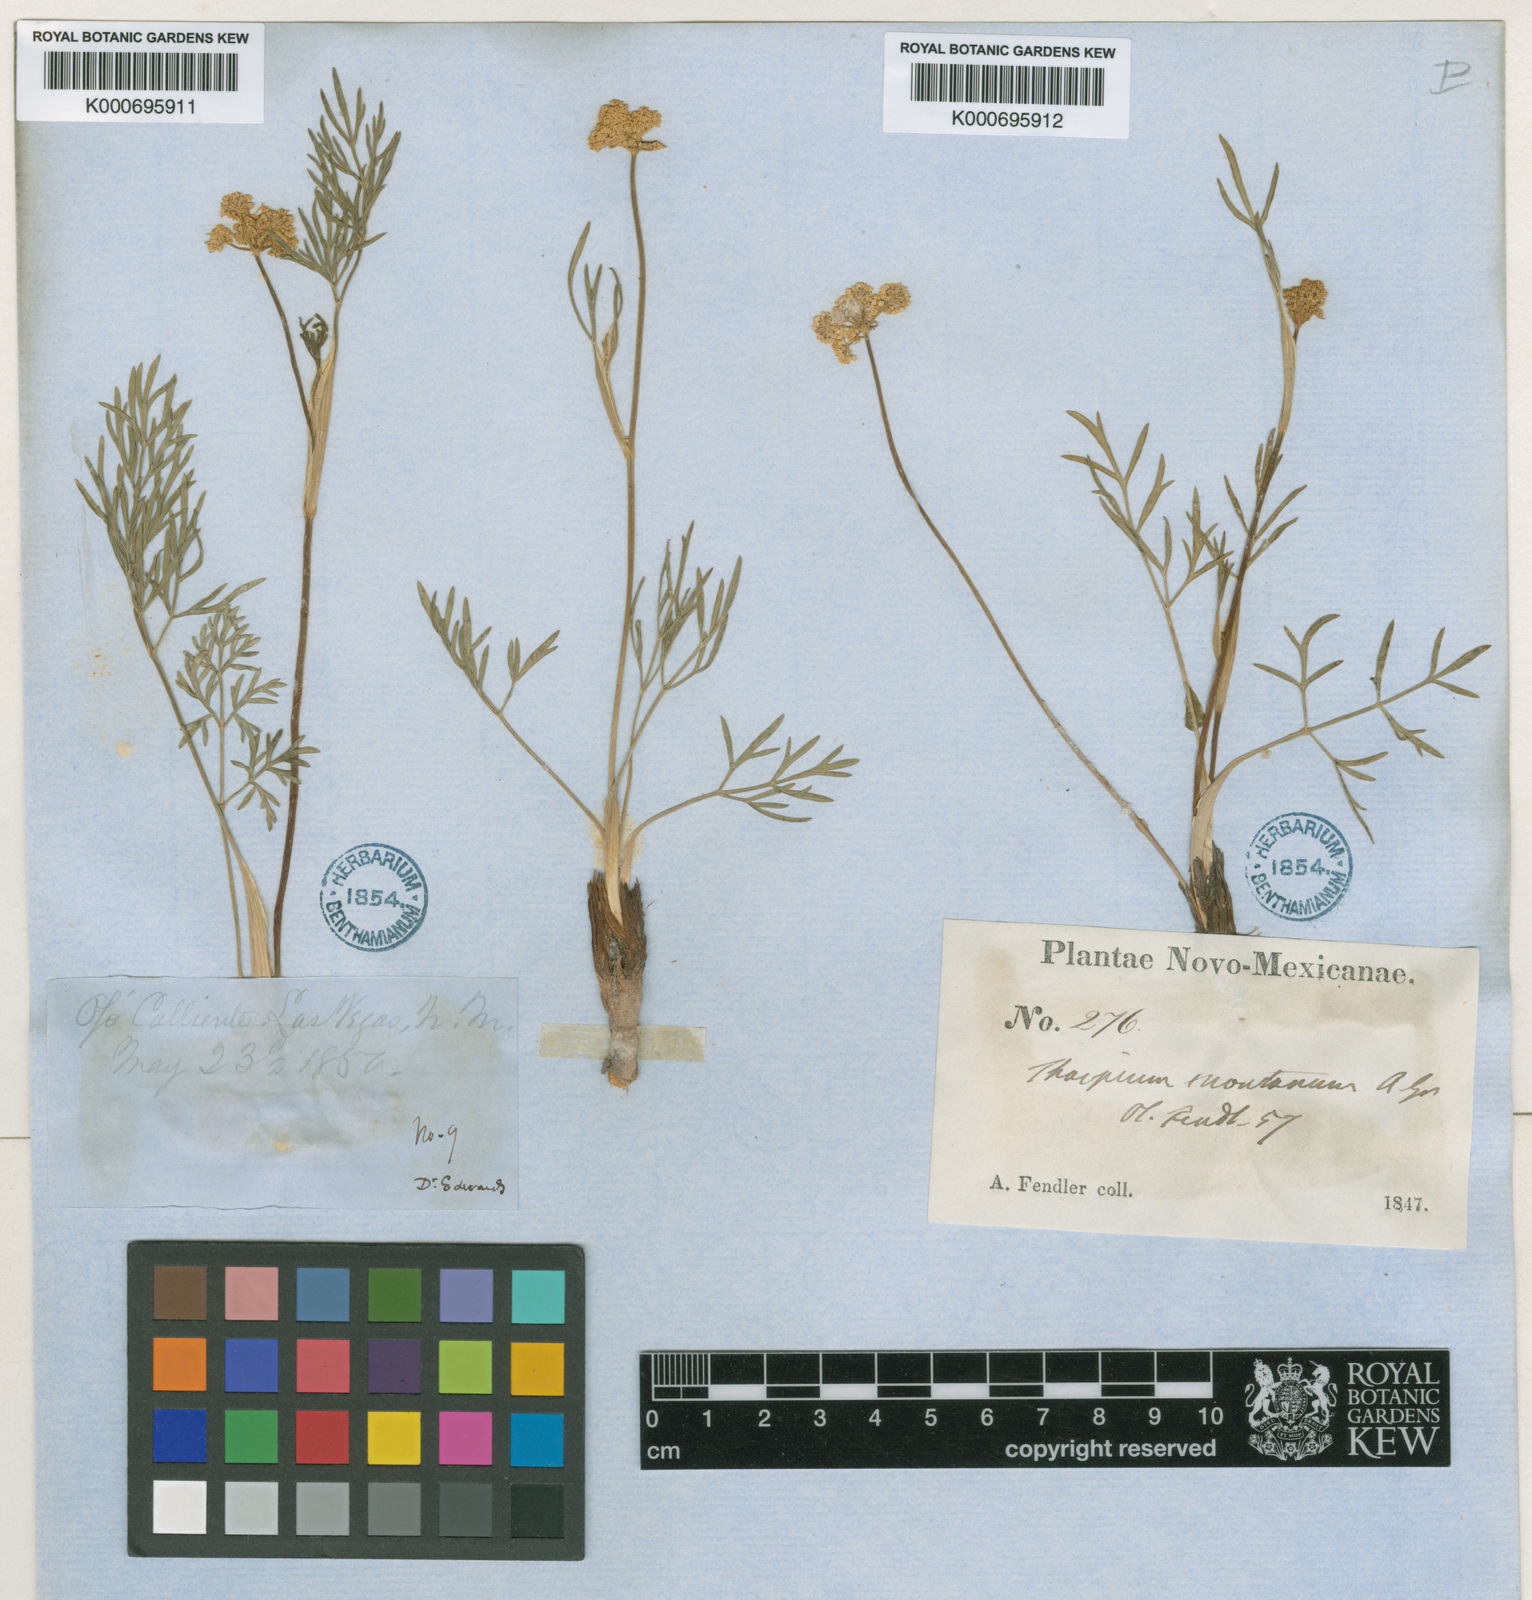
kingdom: Plantae
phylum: Tracheophyta
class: Magnoliopsida
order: Apiales
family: Apiaceae
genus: Cymopterus
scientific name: Cymopterus lemmonii
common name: Lemmon's spring-parsley
